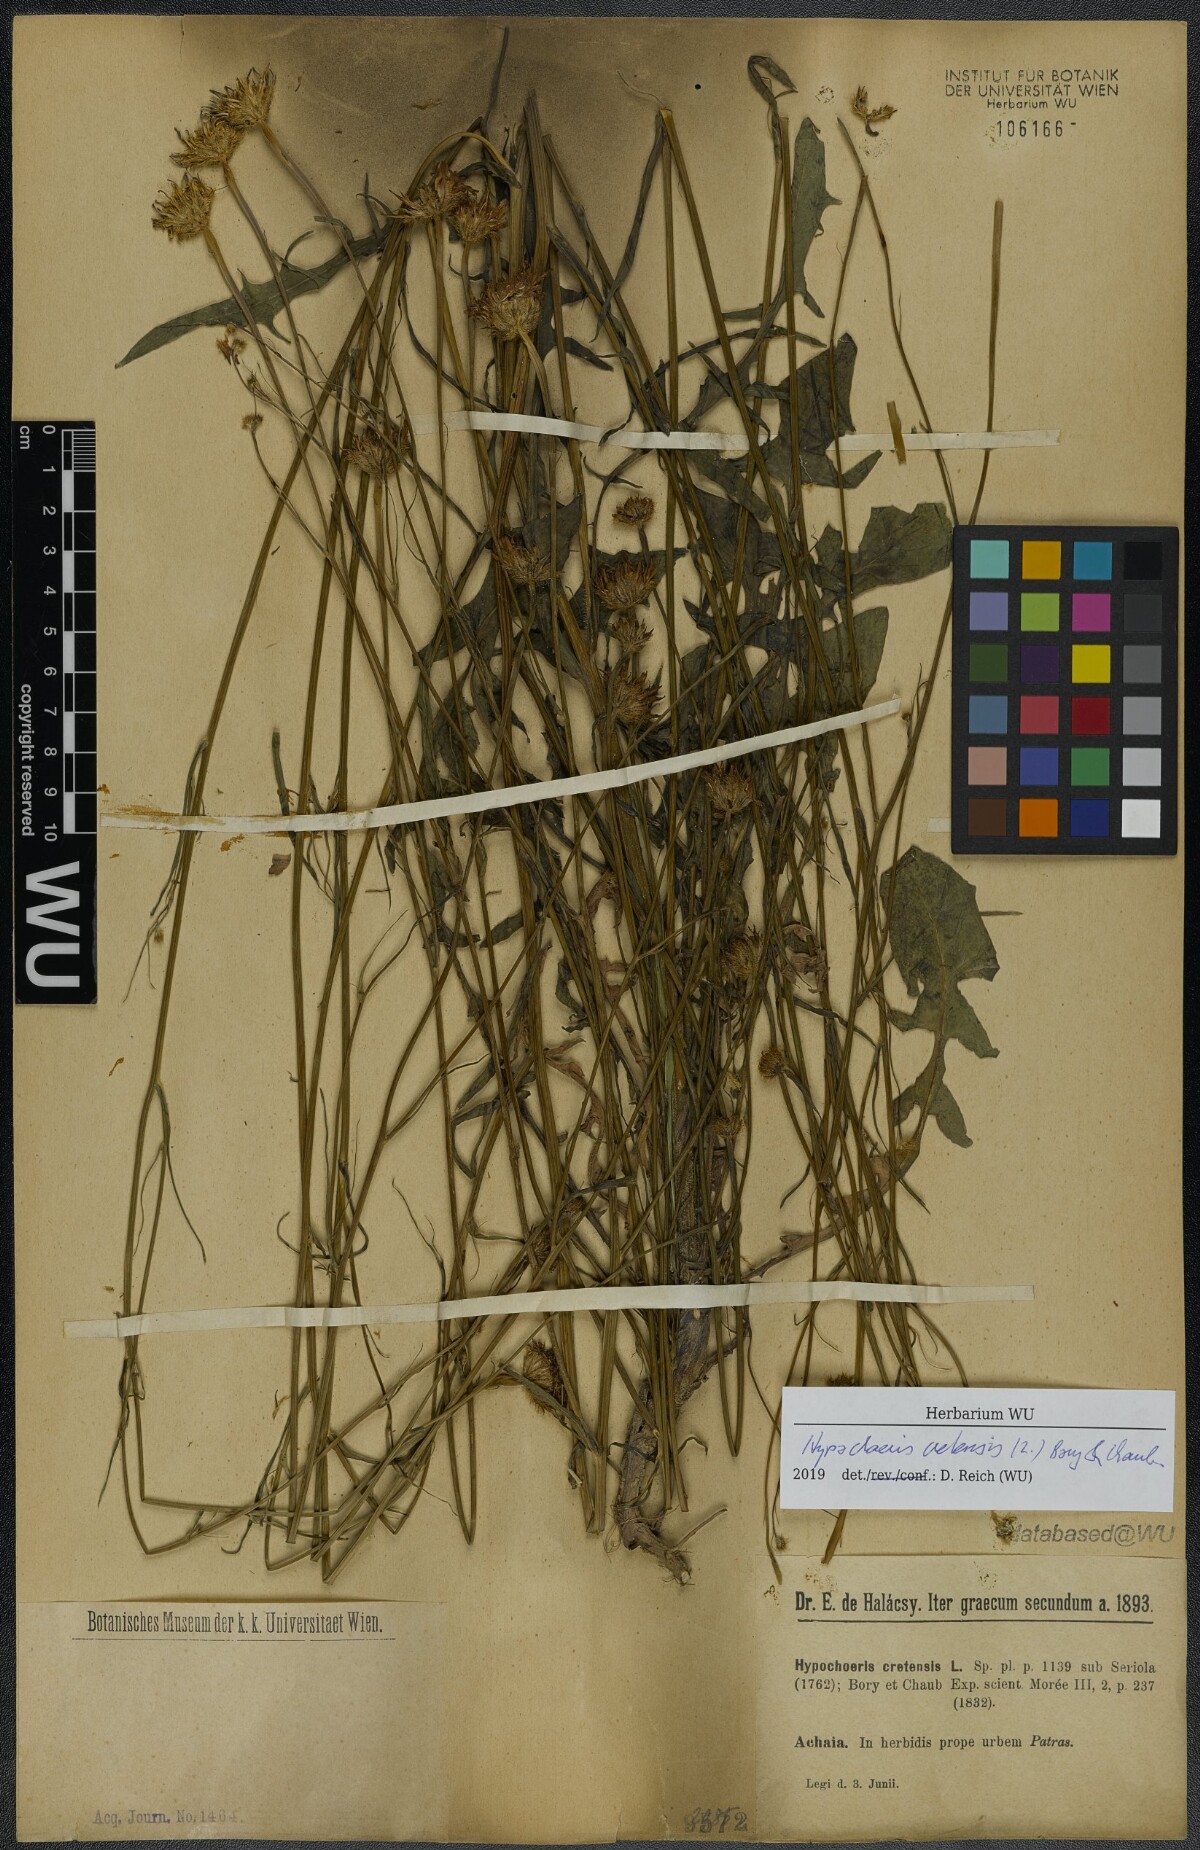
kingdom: Plantae
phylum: Tracheophyta
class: Magnoliopsida
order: Asterales
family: Asteraceae
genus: Hypochaeris
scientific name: Hypochaeris cretensis
